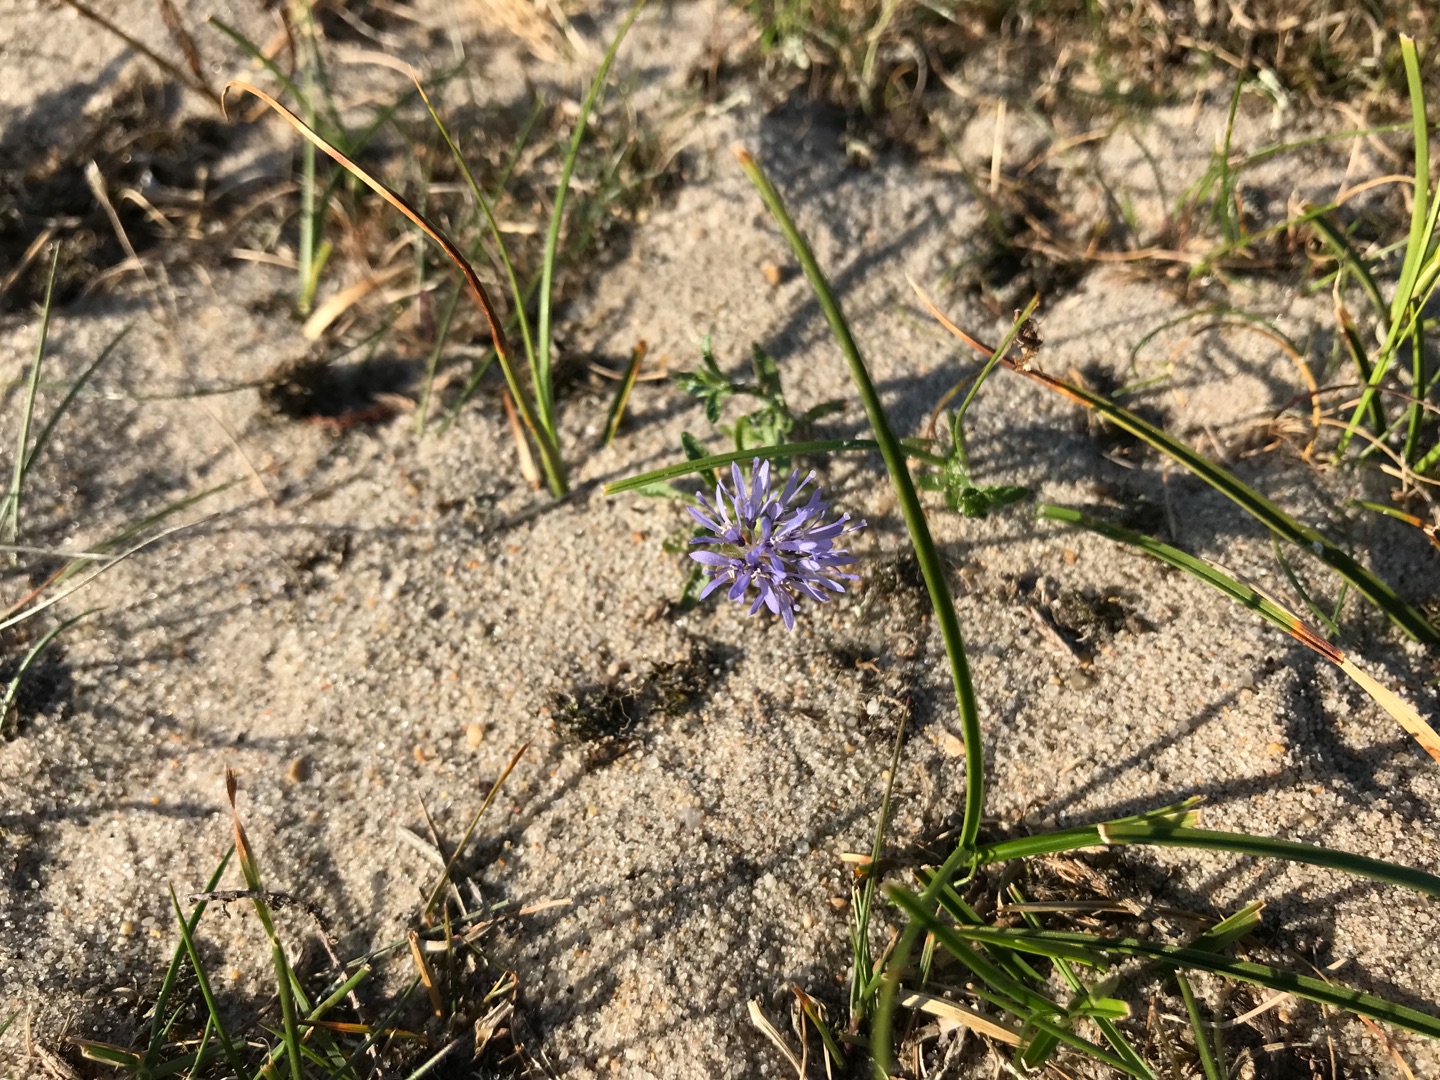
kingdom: Plantae
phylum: Tracheophyta
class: Magnoliopsida
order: Asterales
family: Campanulaceae
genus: Jasione
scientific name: Jasione montana
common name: Blåmunke
